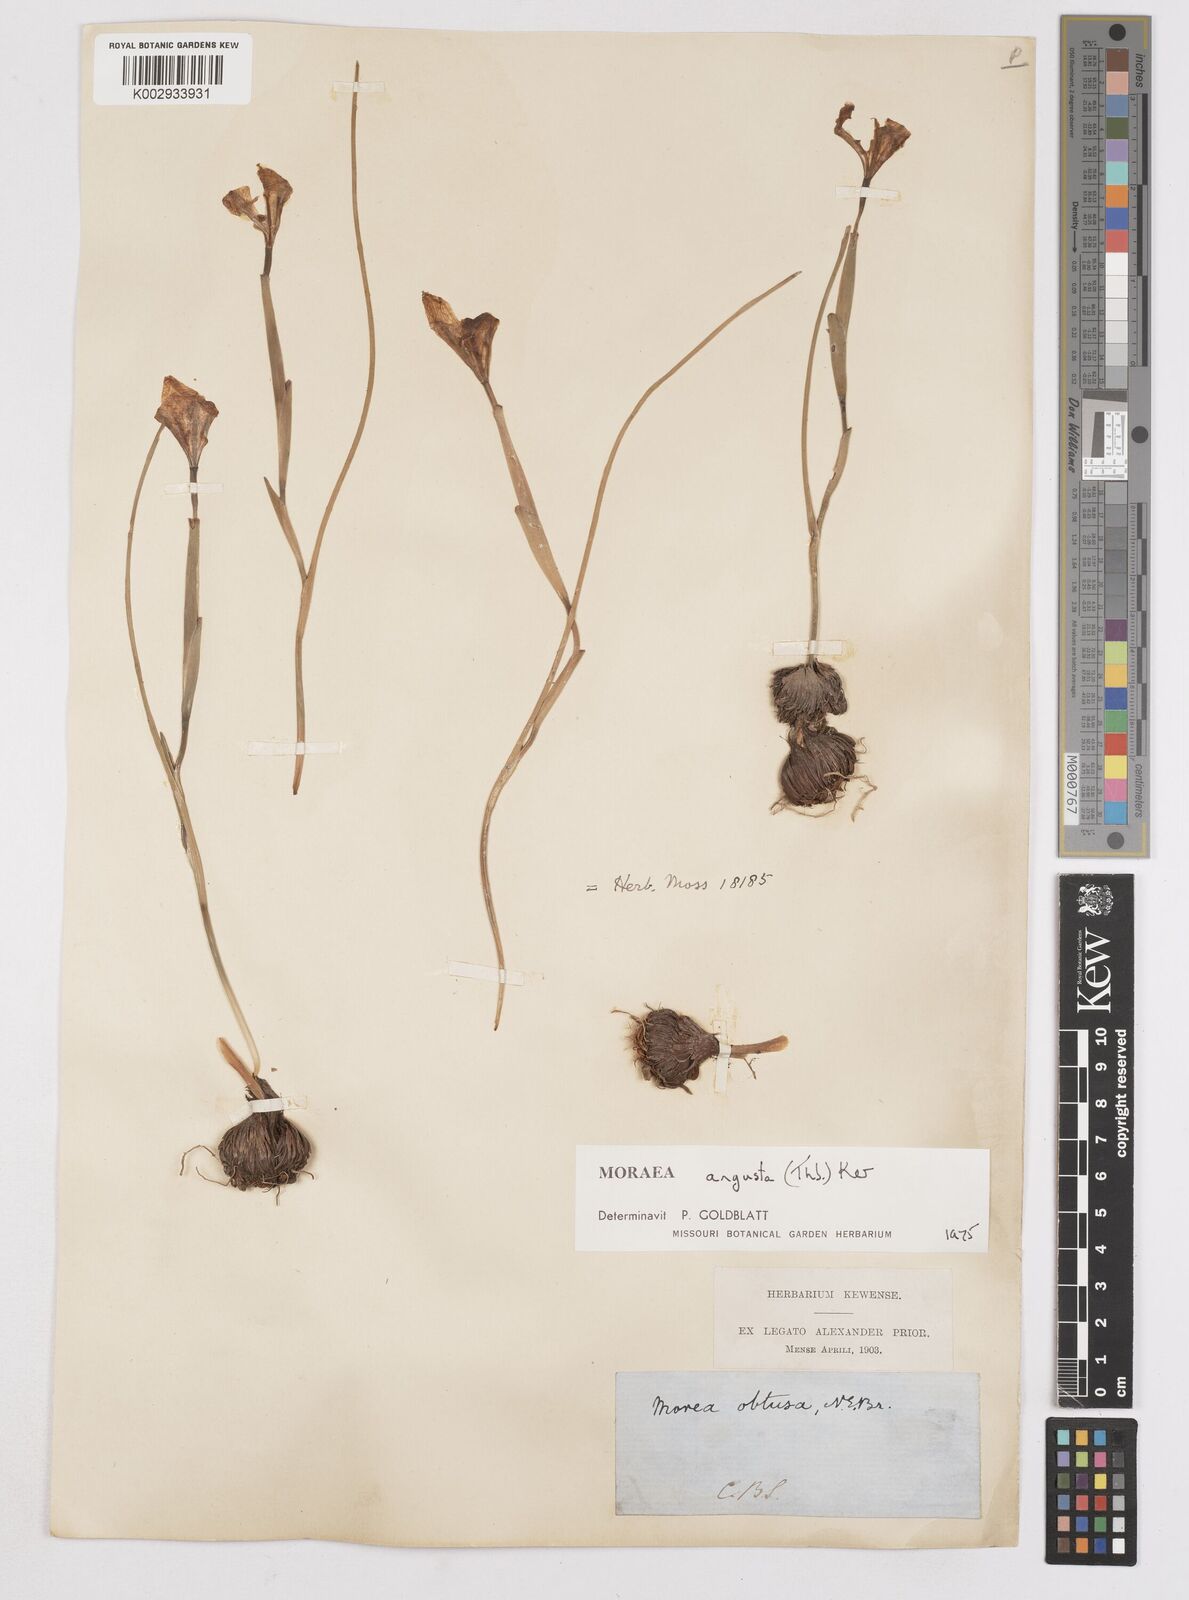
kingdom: Plantae
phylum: Tracheophyta
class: Liliopsida
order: Asparagales
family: Iridaceae
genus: Moraea
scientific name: Moraea angusta
